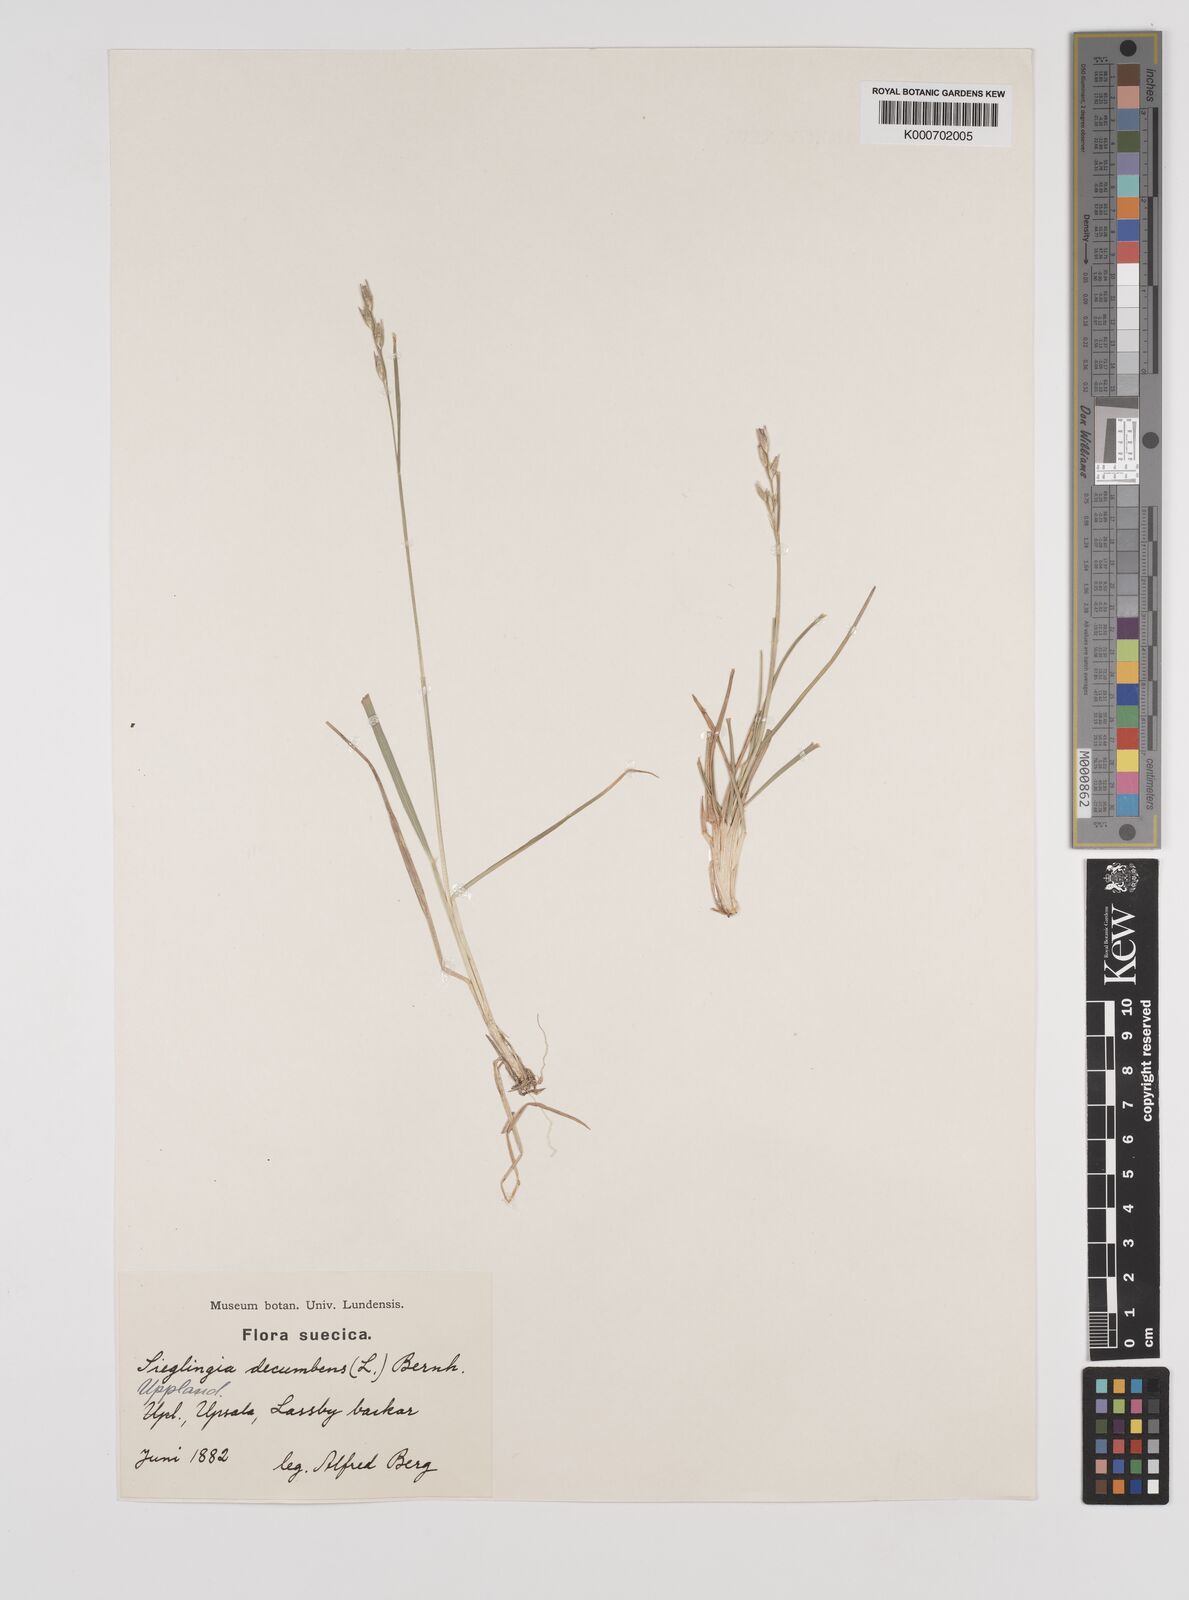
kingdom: Plantae
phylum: Tracheophyta
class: Liliopsida
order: Poales
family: Poaceae
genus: Danthonia
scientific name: Danthonia decumbens
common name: Common heathgrass
